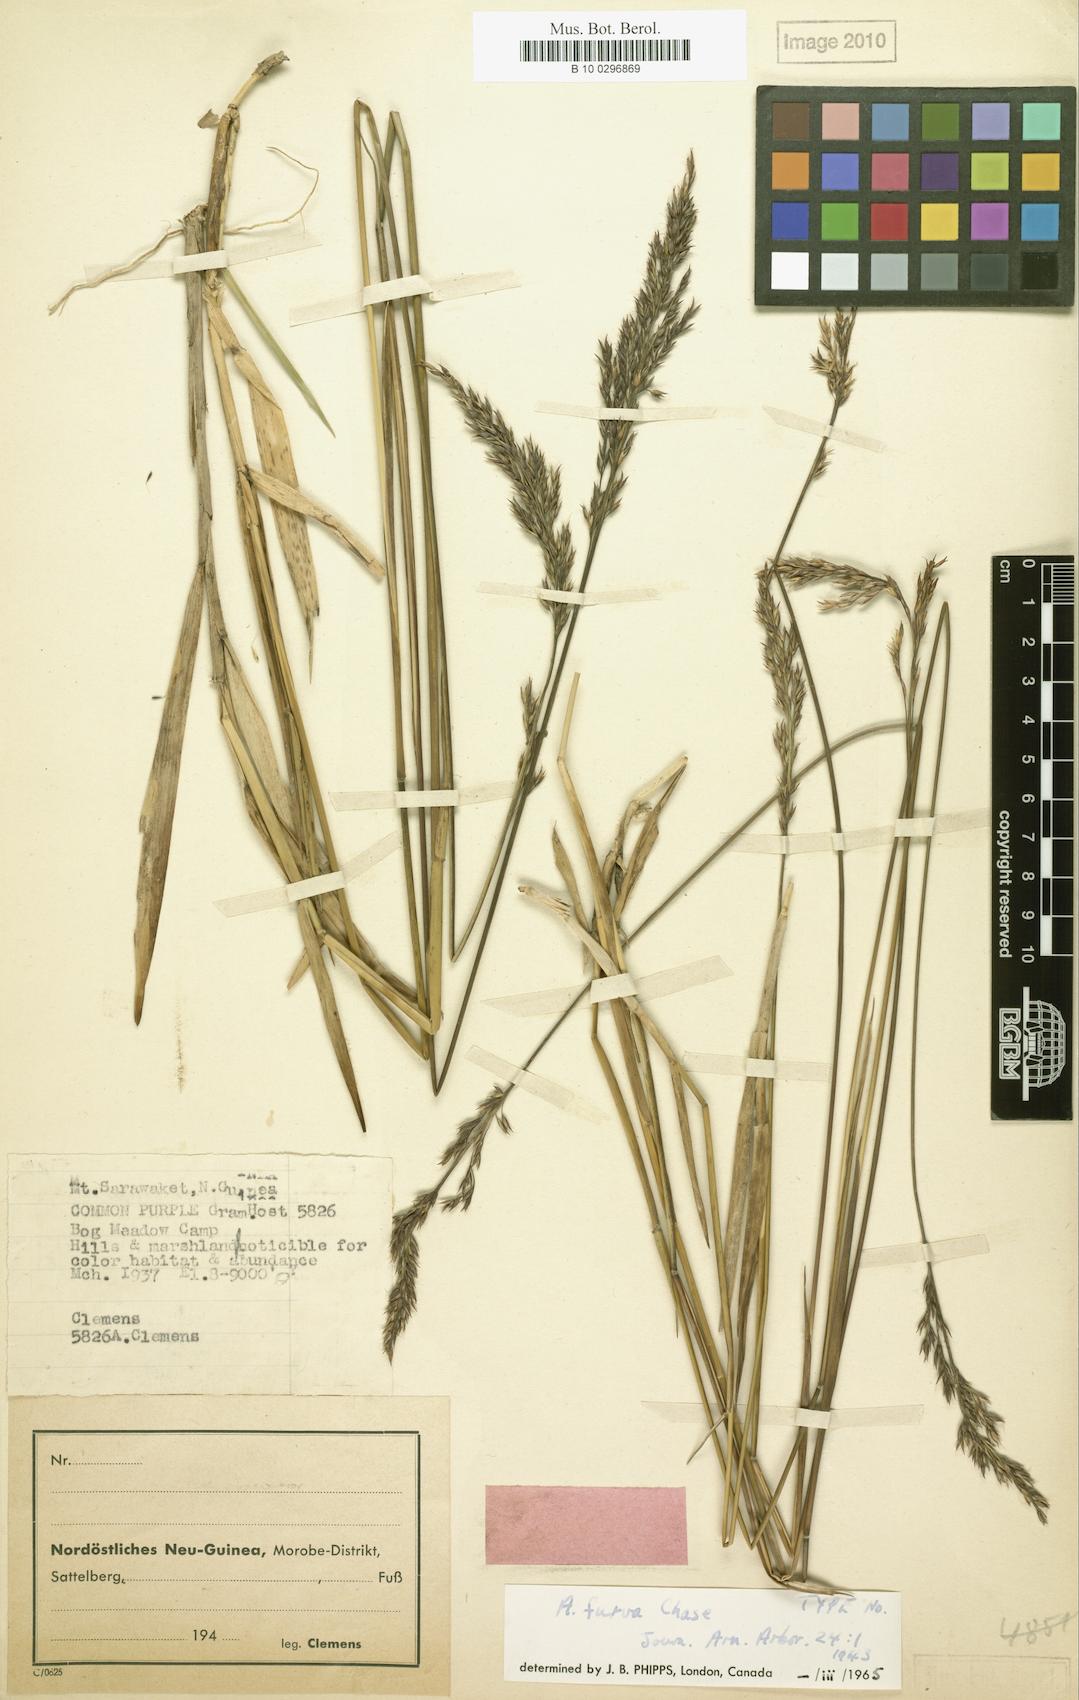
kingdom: Plantae
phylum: Tracheophyta
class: Liliopsida
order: Poales
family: Poaceae
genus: Arundinella
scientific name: Arundinella furva
